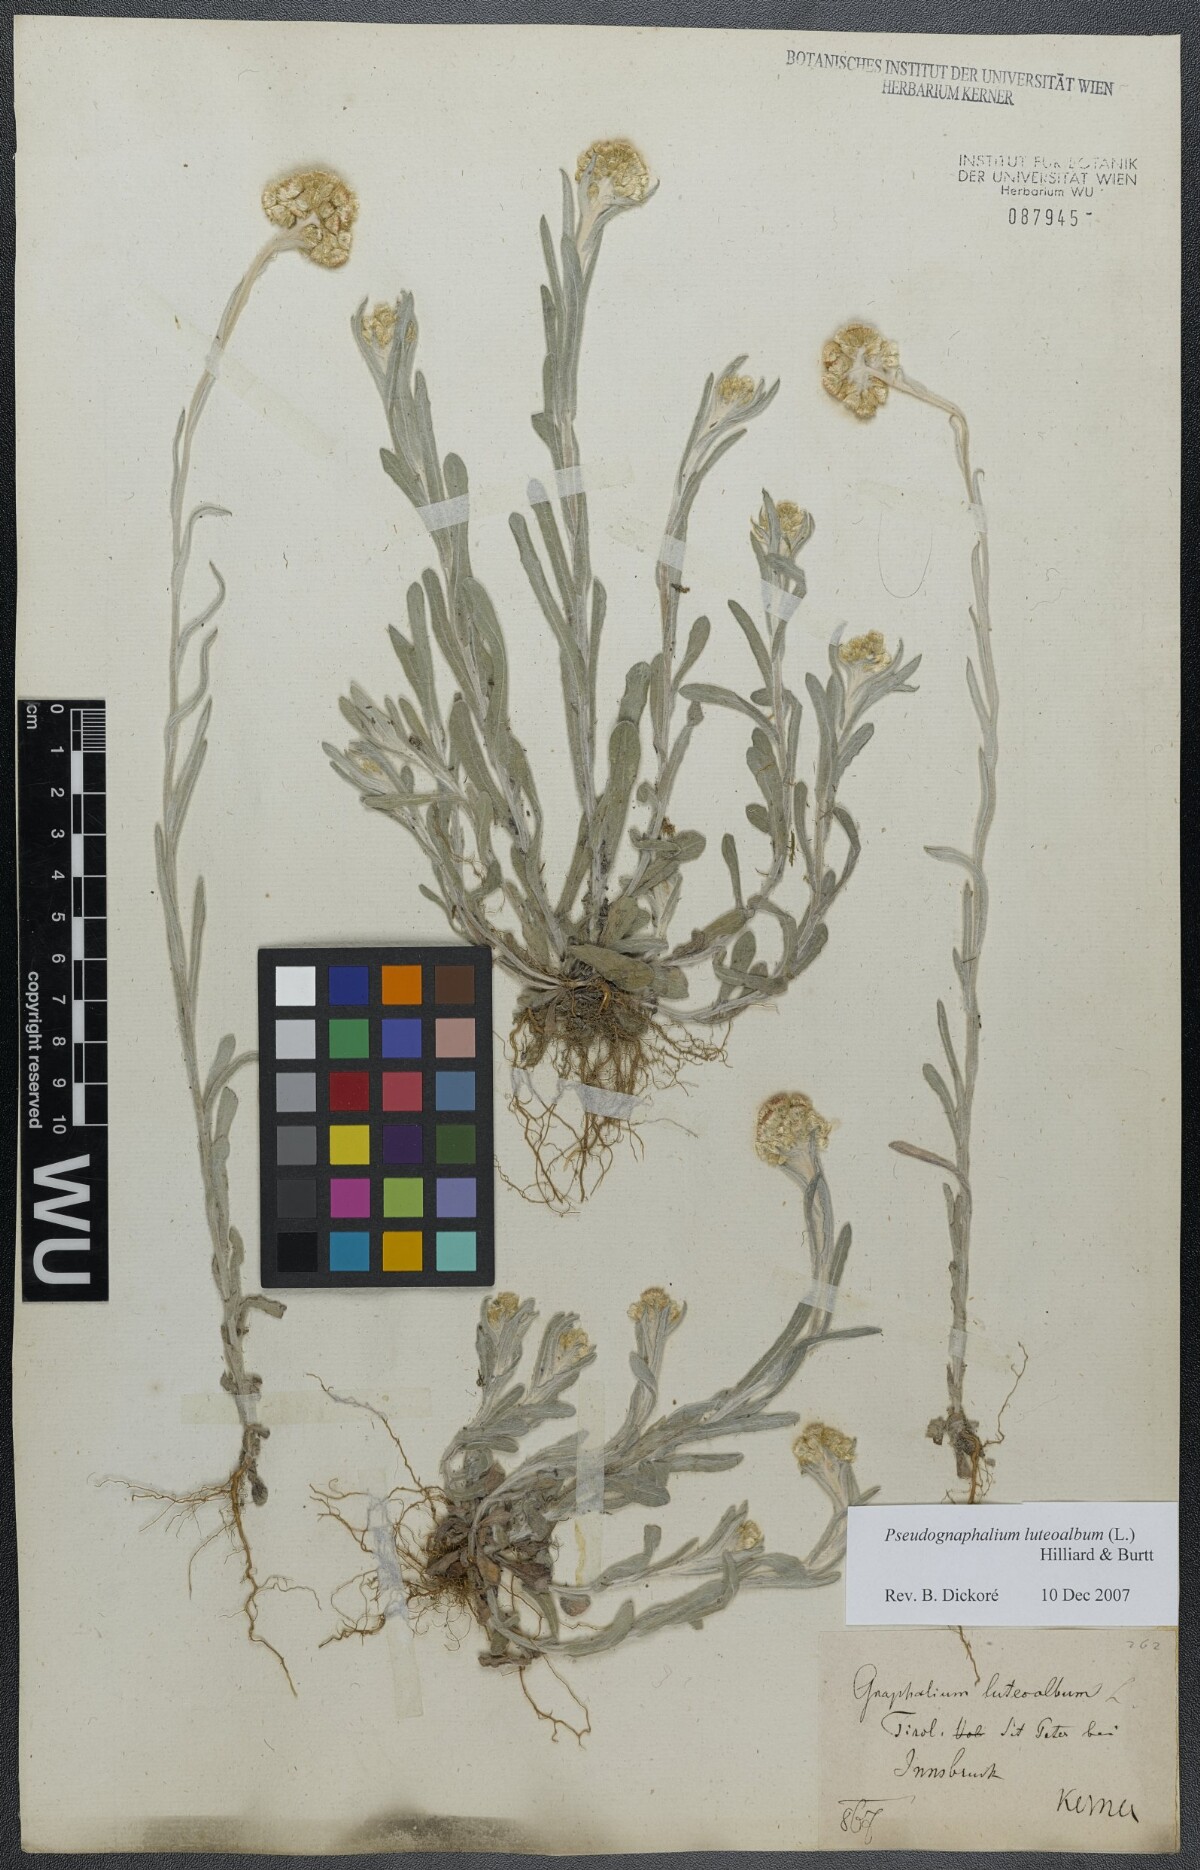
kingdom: Plantae
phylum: Tracheophyta
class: Magnoliopsida
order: Asterales
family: Asteraceae
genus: Helichrysum
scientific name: Helichrysum luteoalbum
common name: Daisy
